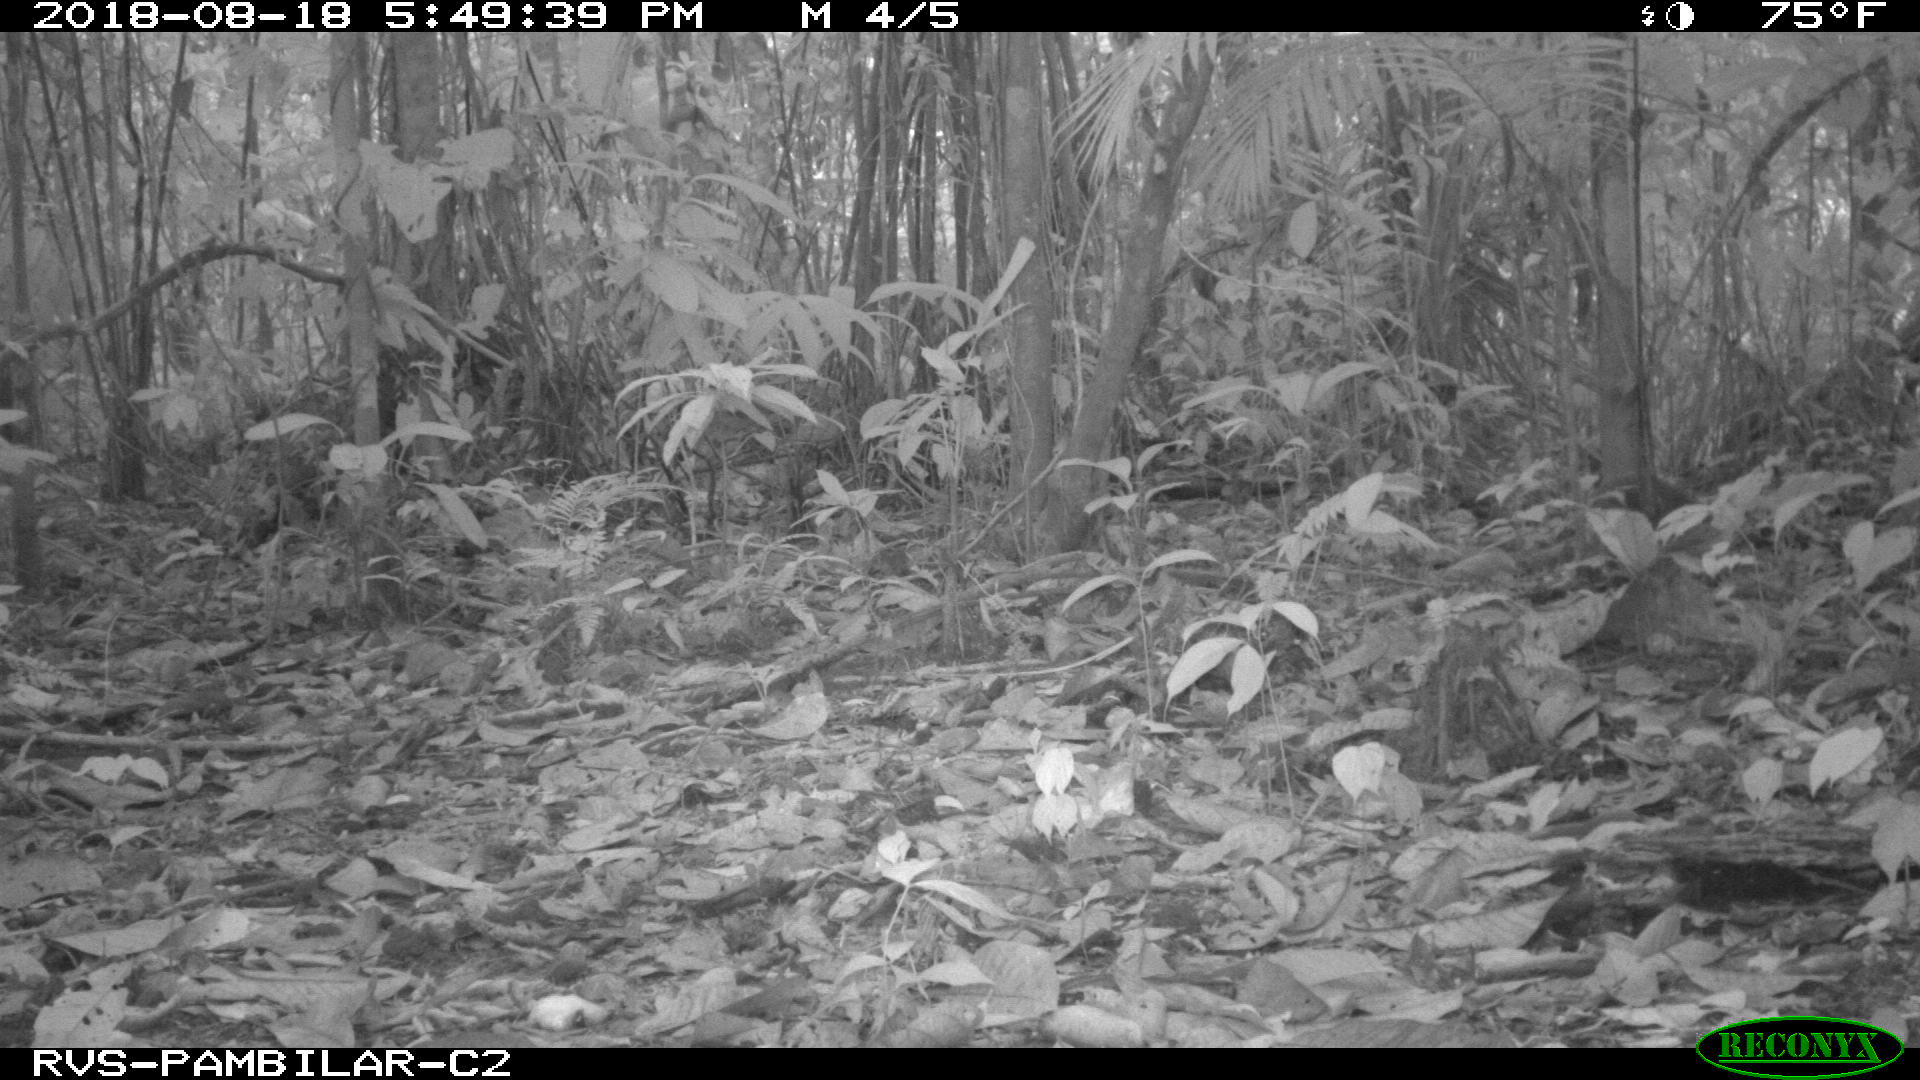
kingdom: Animalia
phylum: Chordata
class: Mammalia
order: Rodentia
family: Dasyproctidae
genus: Dasyprocta
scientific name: Dasyprocta punctata
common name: Central american agouti
